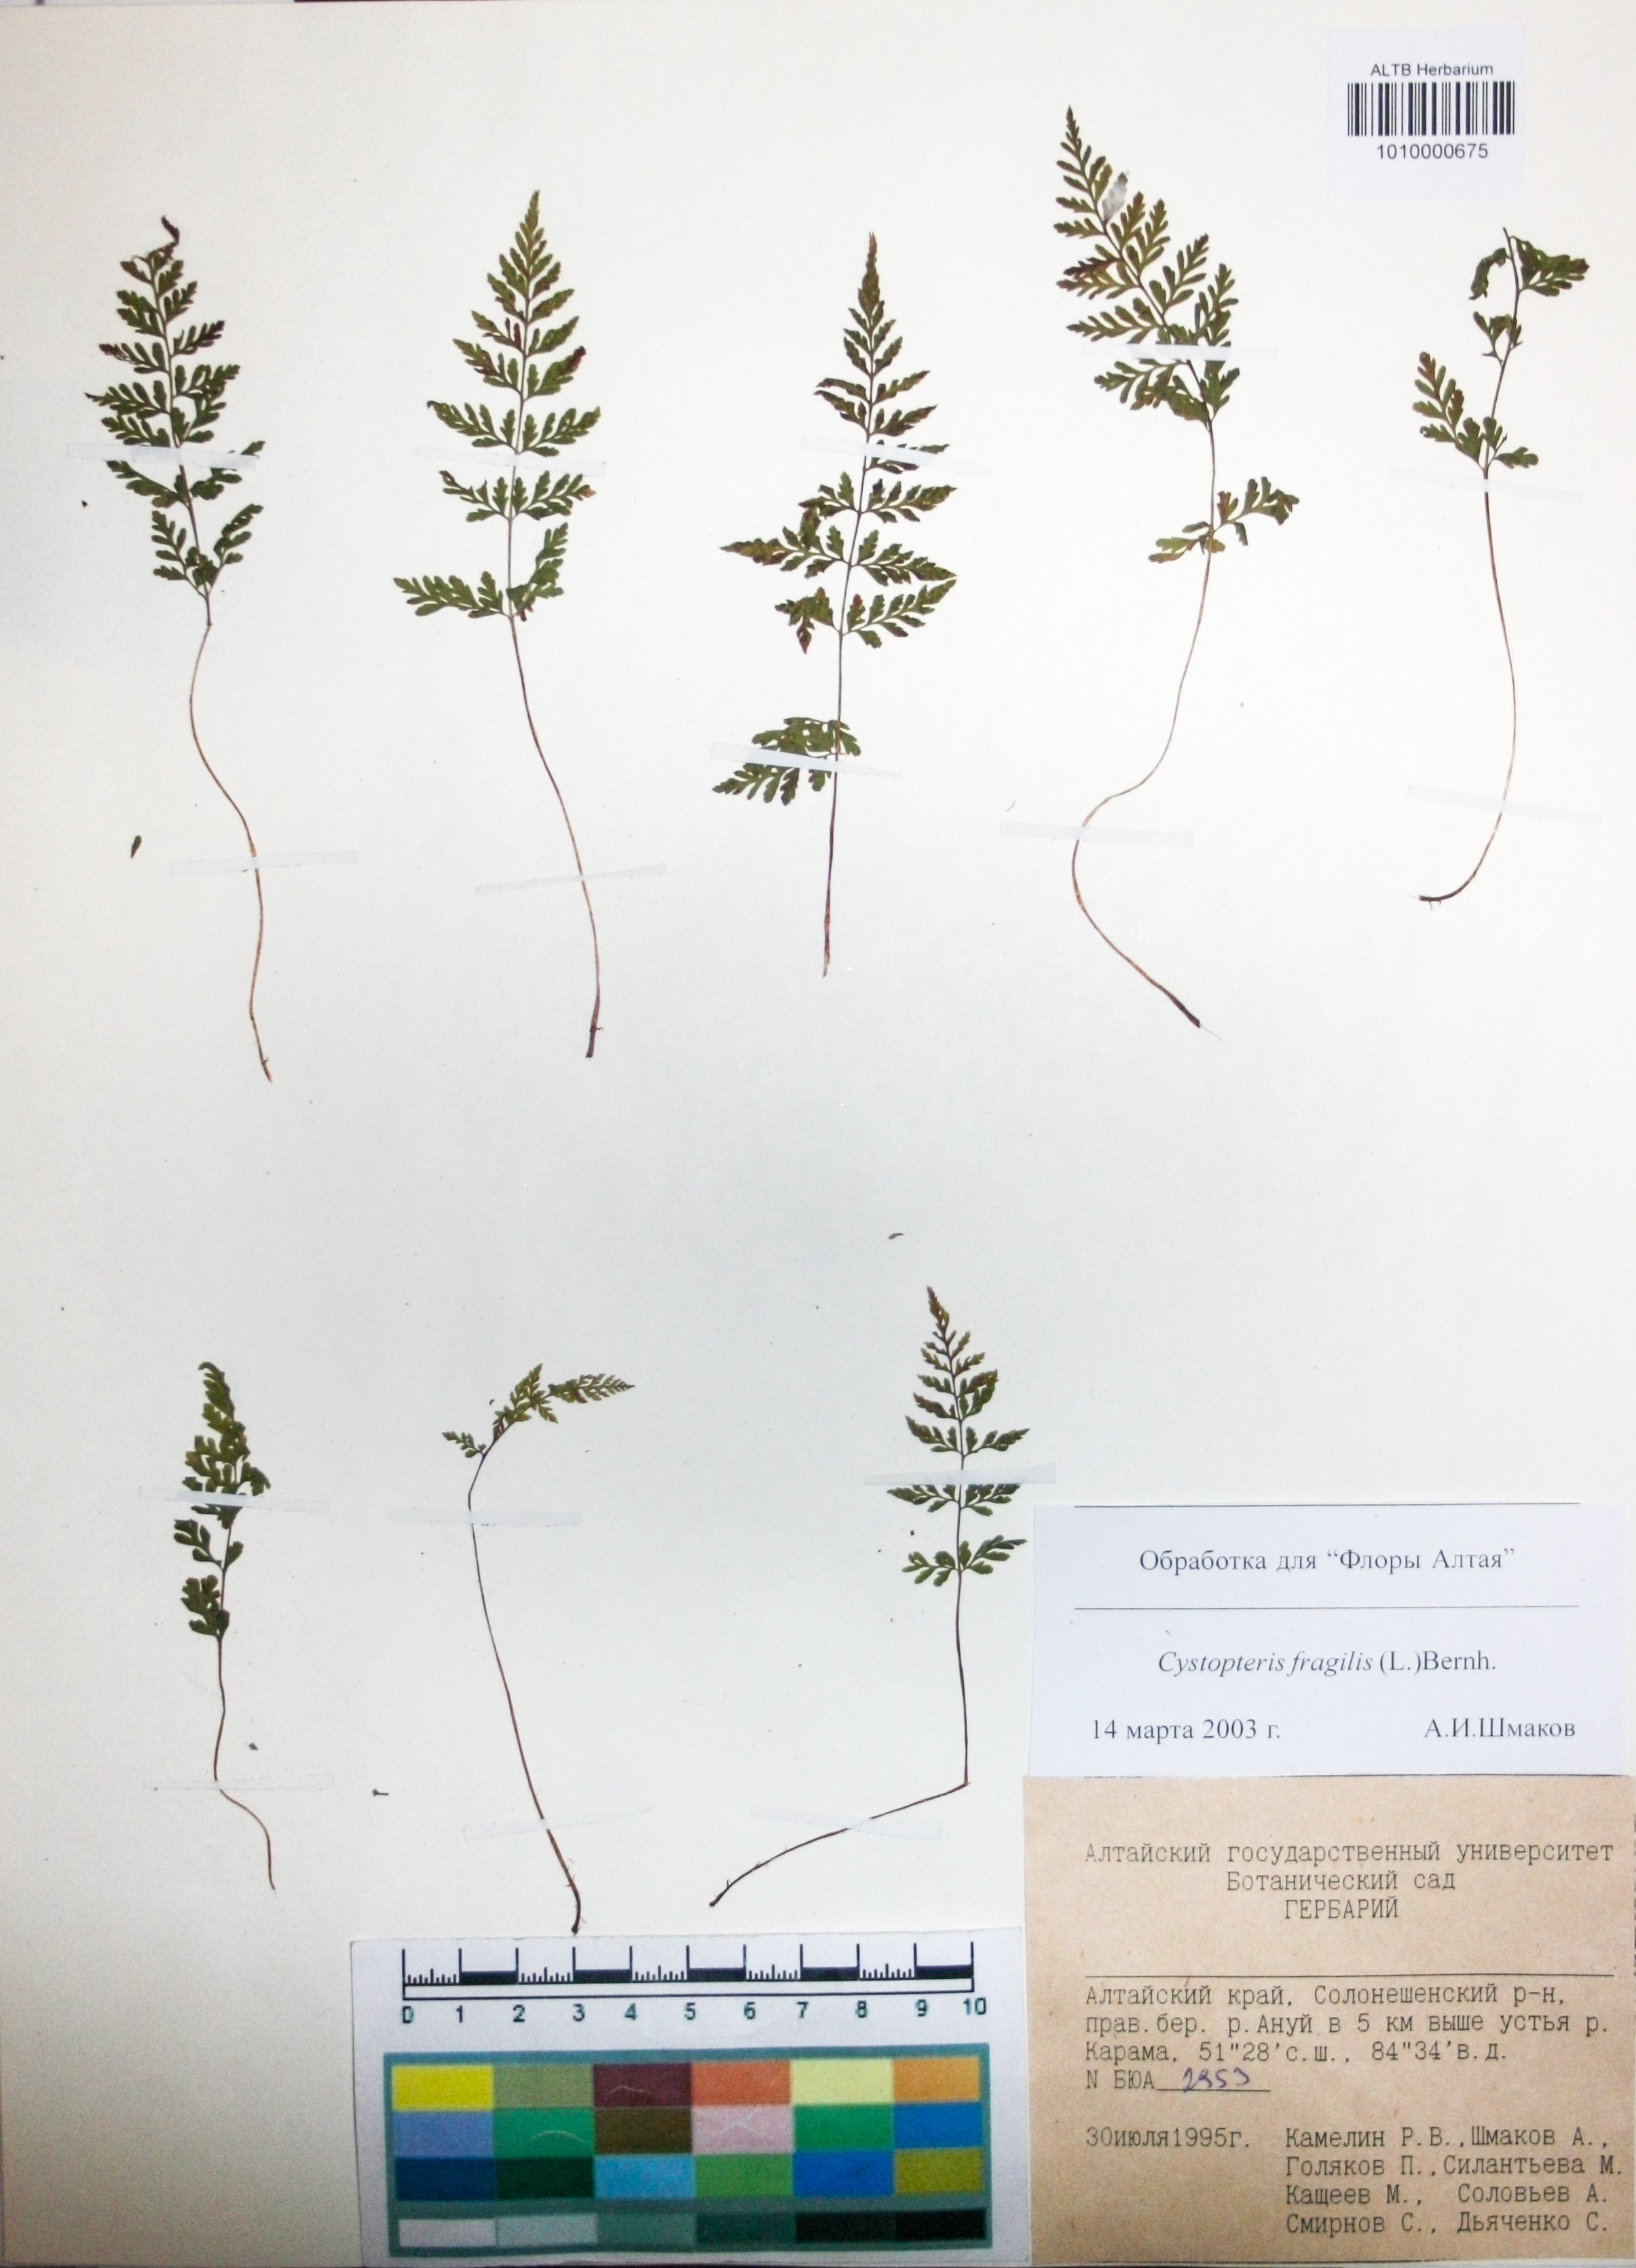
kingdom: Plantae
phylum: Tracheophyta
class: Polypodiopsida
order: Polypodiales
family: Cystopteridaceae
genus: Cystopteris
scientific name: Cystopteris fragilis
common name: Brittle bladder fern
